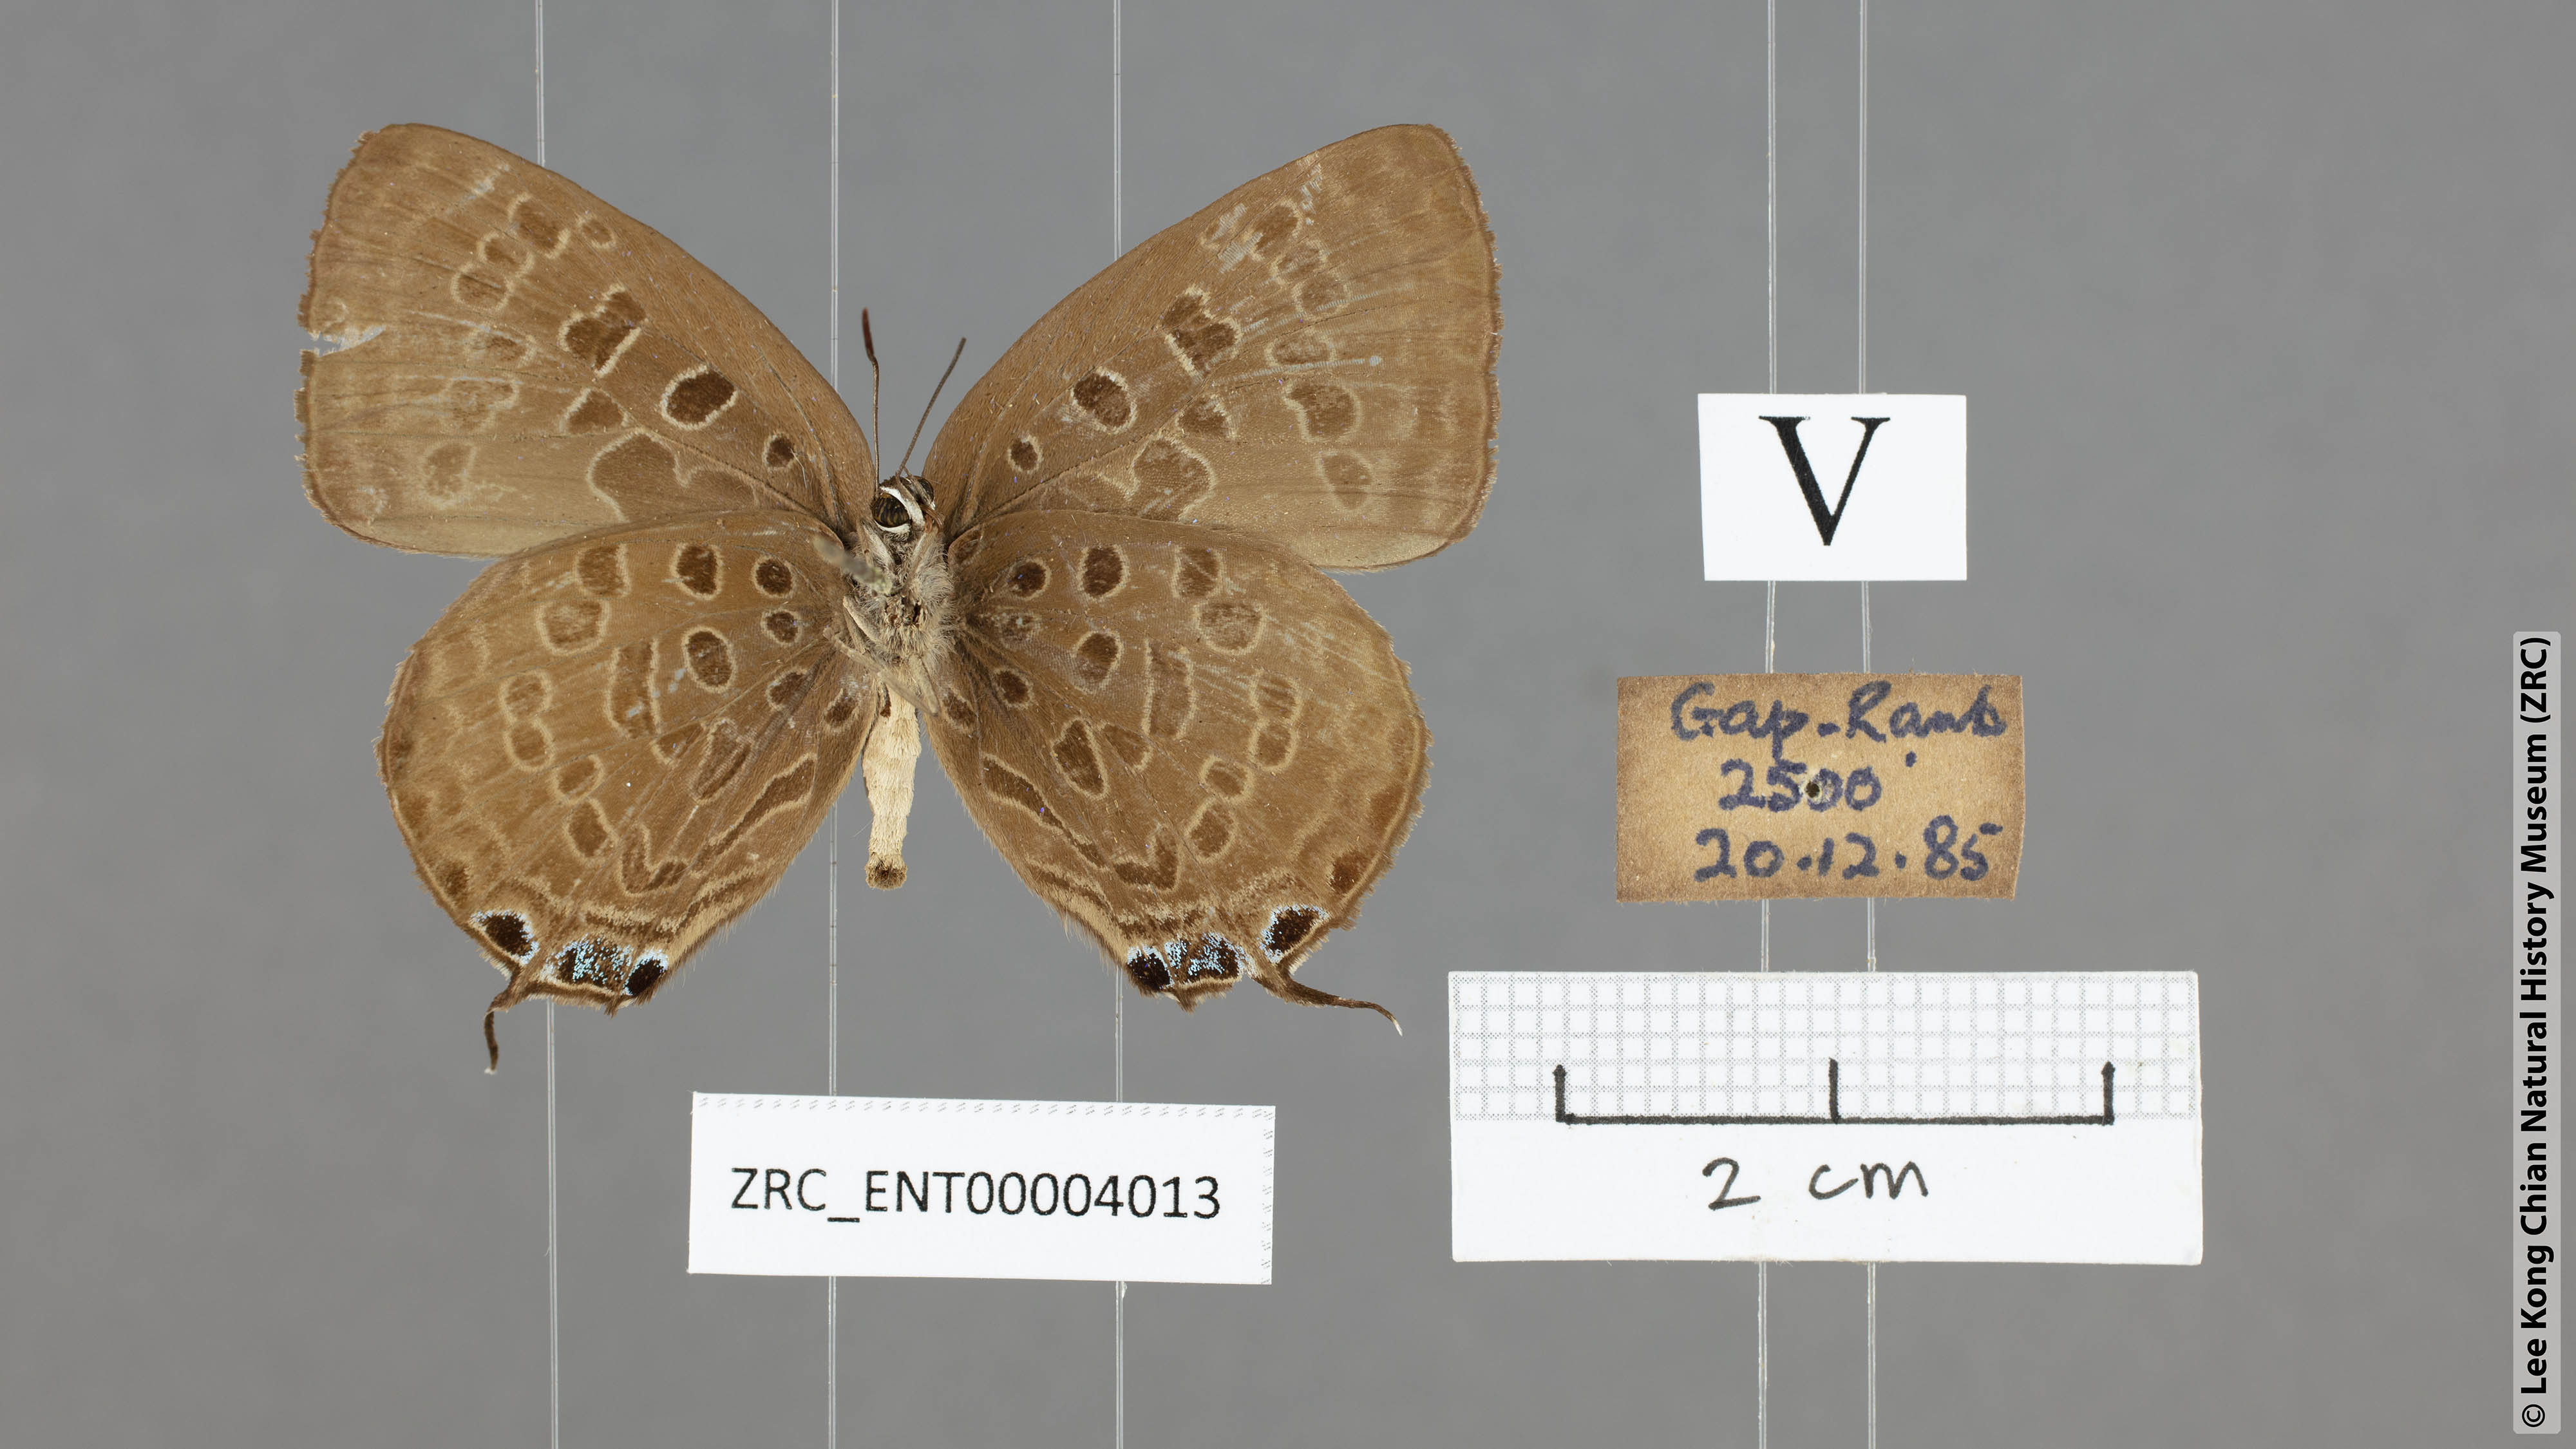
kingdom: Animalia
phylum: Arthropoda
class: Insecta
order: Lepidoptera
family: Lycaenidae
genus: Arhopala
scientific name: Arhopala opalina
